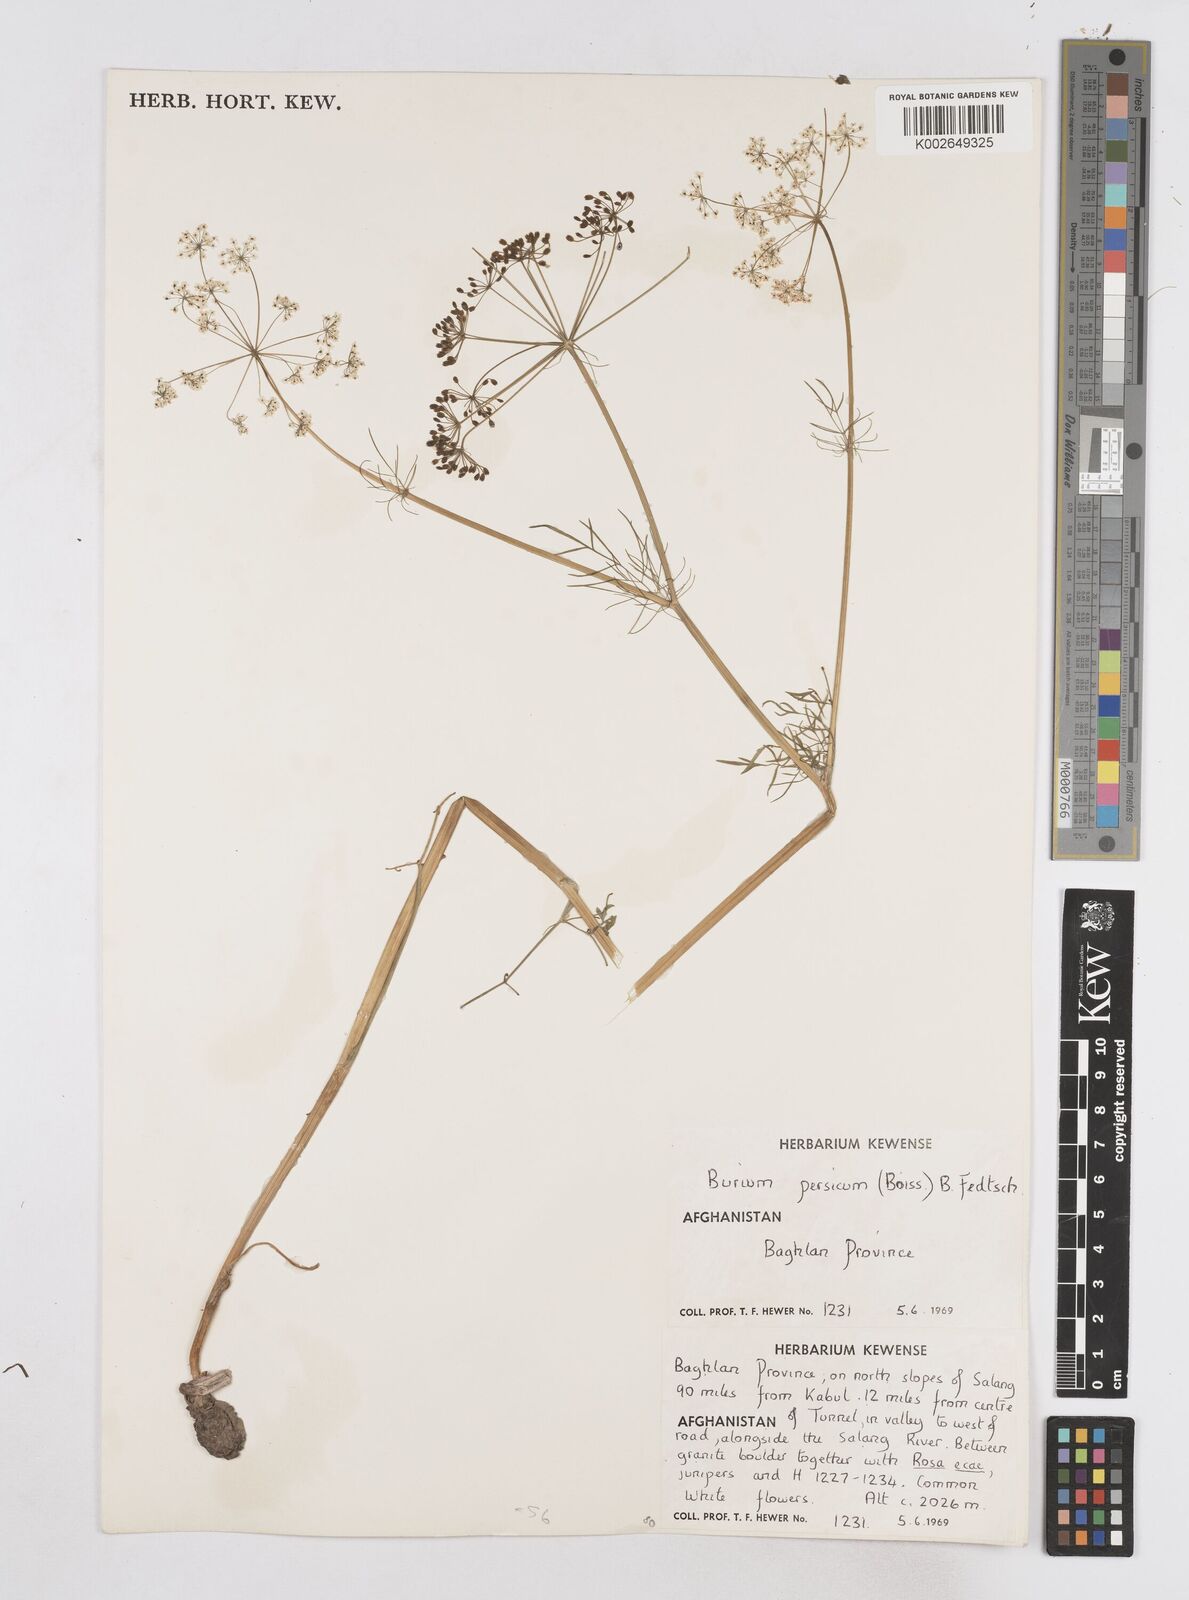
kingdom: Plantae
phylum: Tracheophyta
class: Magnoliopsida
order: Apiales
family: Apiaceae
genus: Elwendia
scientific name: Elwendia persica
